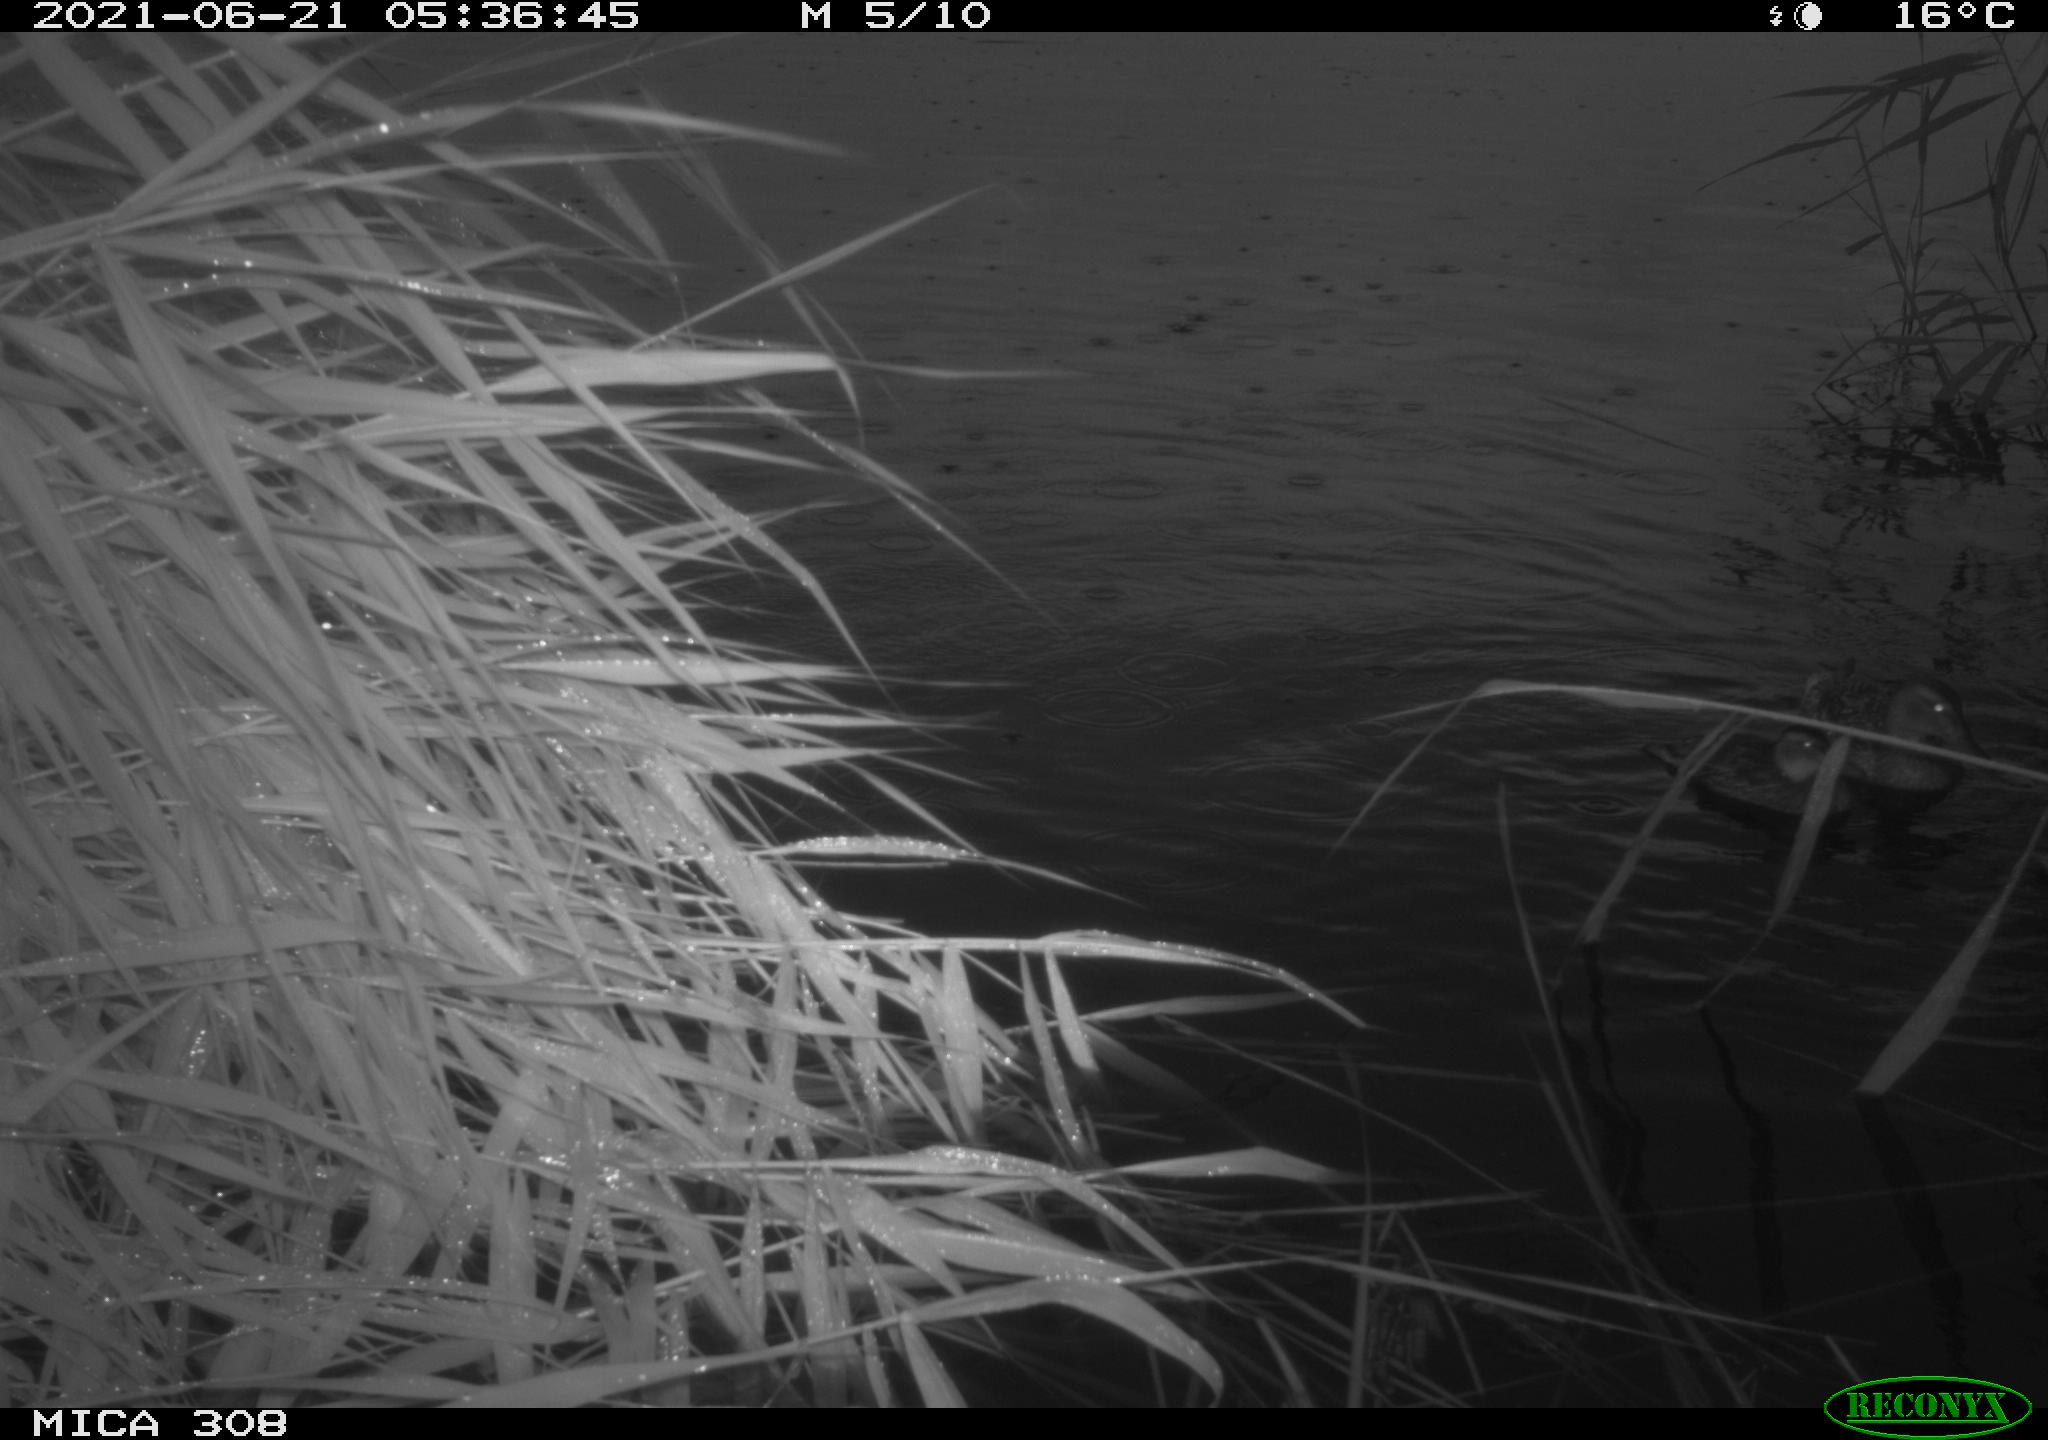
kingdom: Animalia
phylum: Chordata
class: Aves
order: Anseriformes
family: Anatidae
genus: Anas
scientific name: Anas platyrhynchos
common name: Mallard
